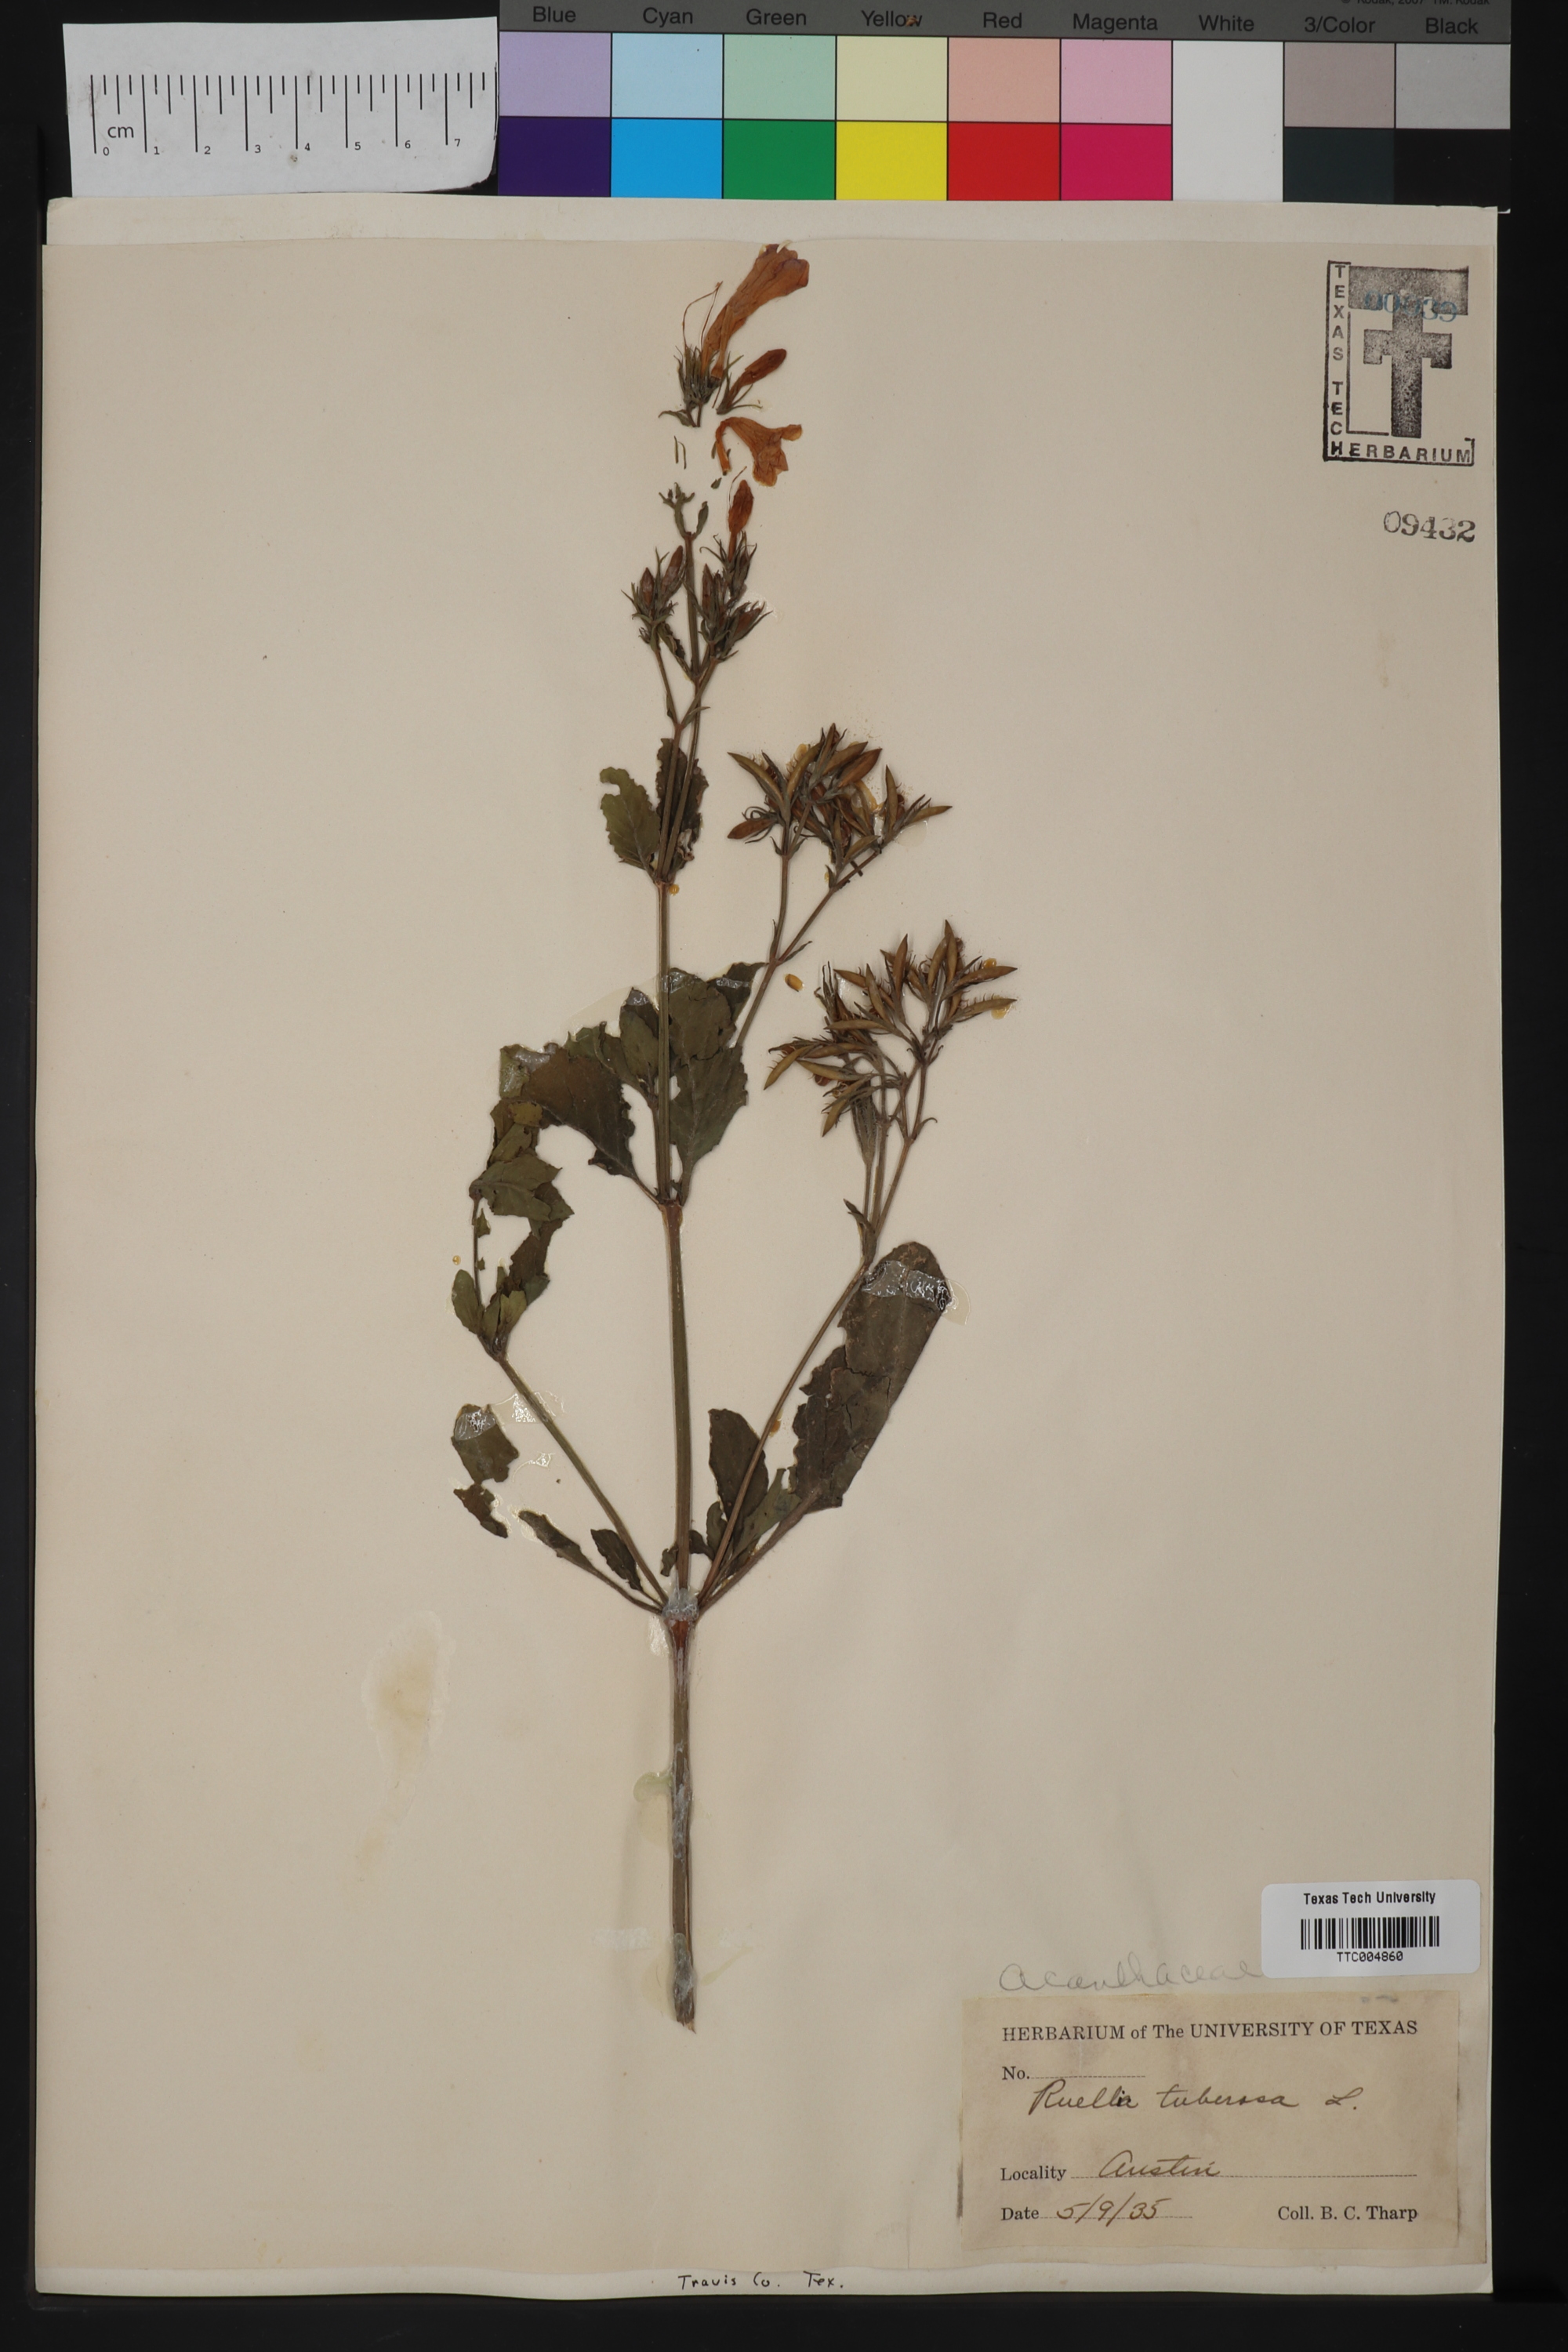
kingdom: Plantae
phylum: Tracheophyta
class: Magnoliopsida
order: Lamiales
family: Acanthaceae
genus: Ruellia
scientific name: Ruellia tuberosa
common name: Devil's bit
